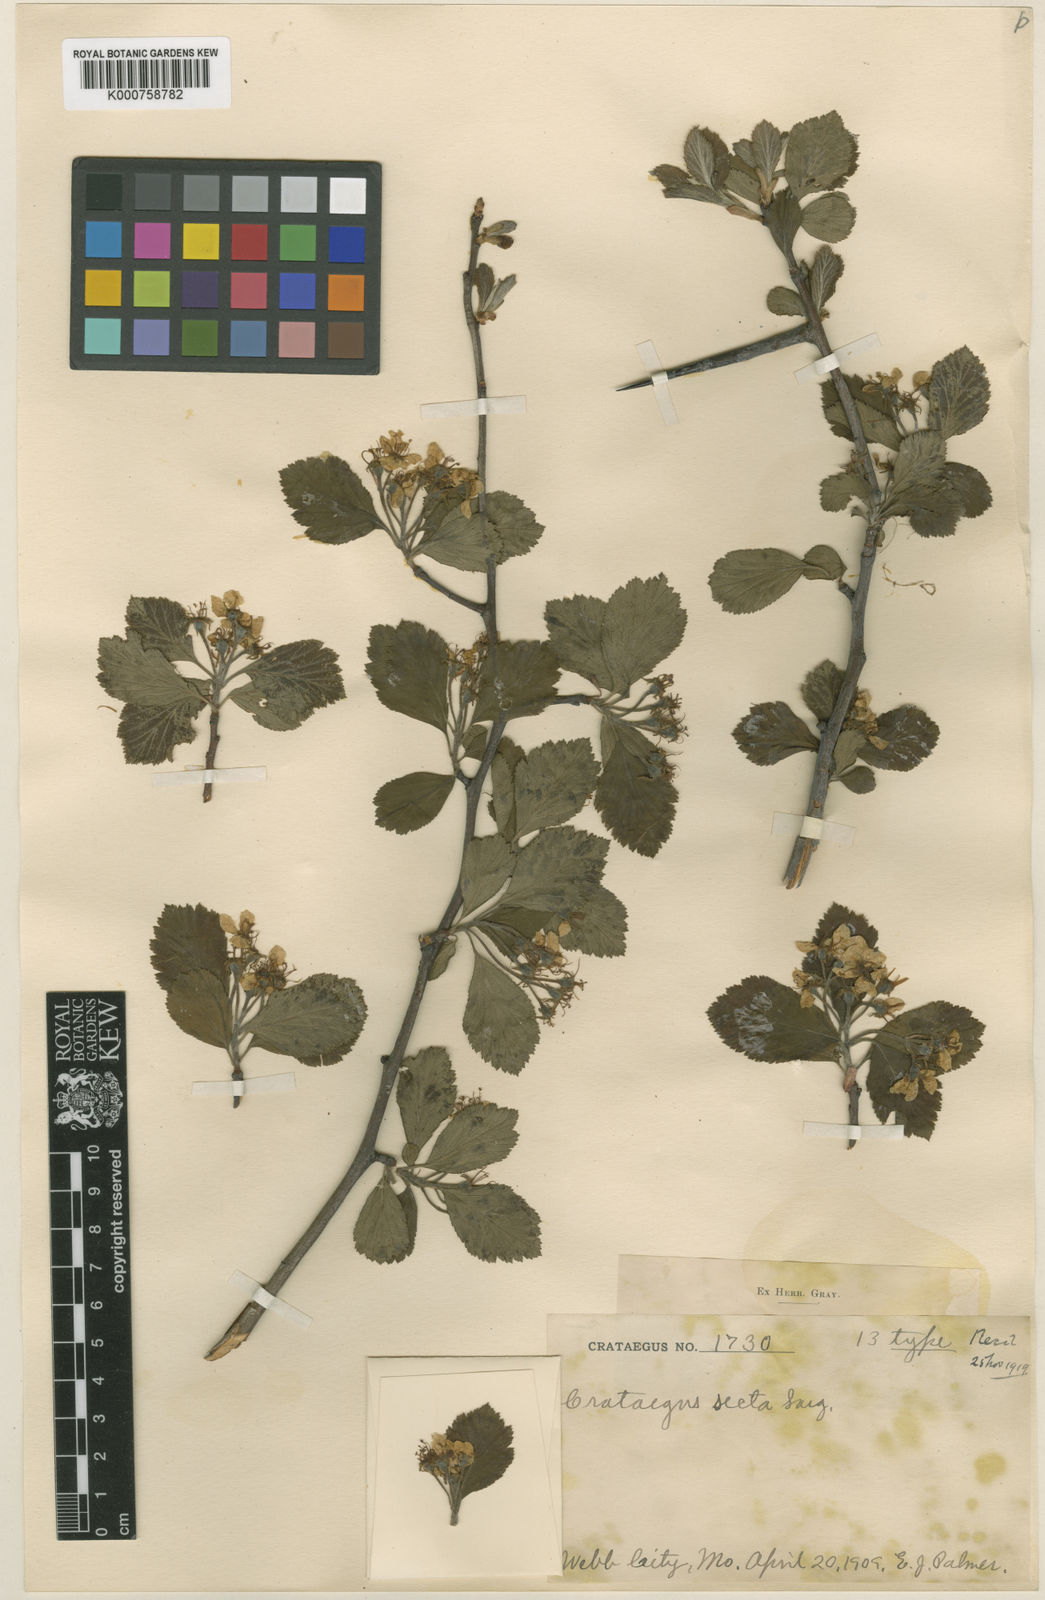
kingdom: Plantae
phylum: Tracheophyta
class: Magnoliopsida
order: Rosales
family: Rosaceae
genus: Crataegus
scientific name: Crataegus punctata
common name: Dotted hawthorn
